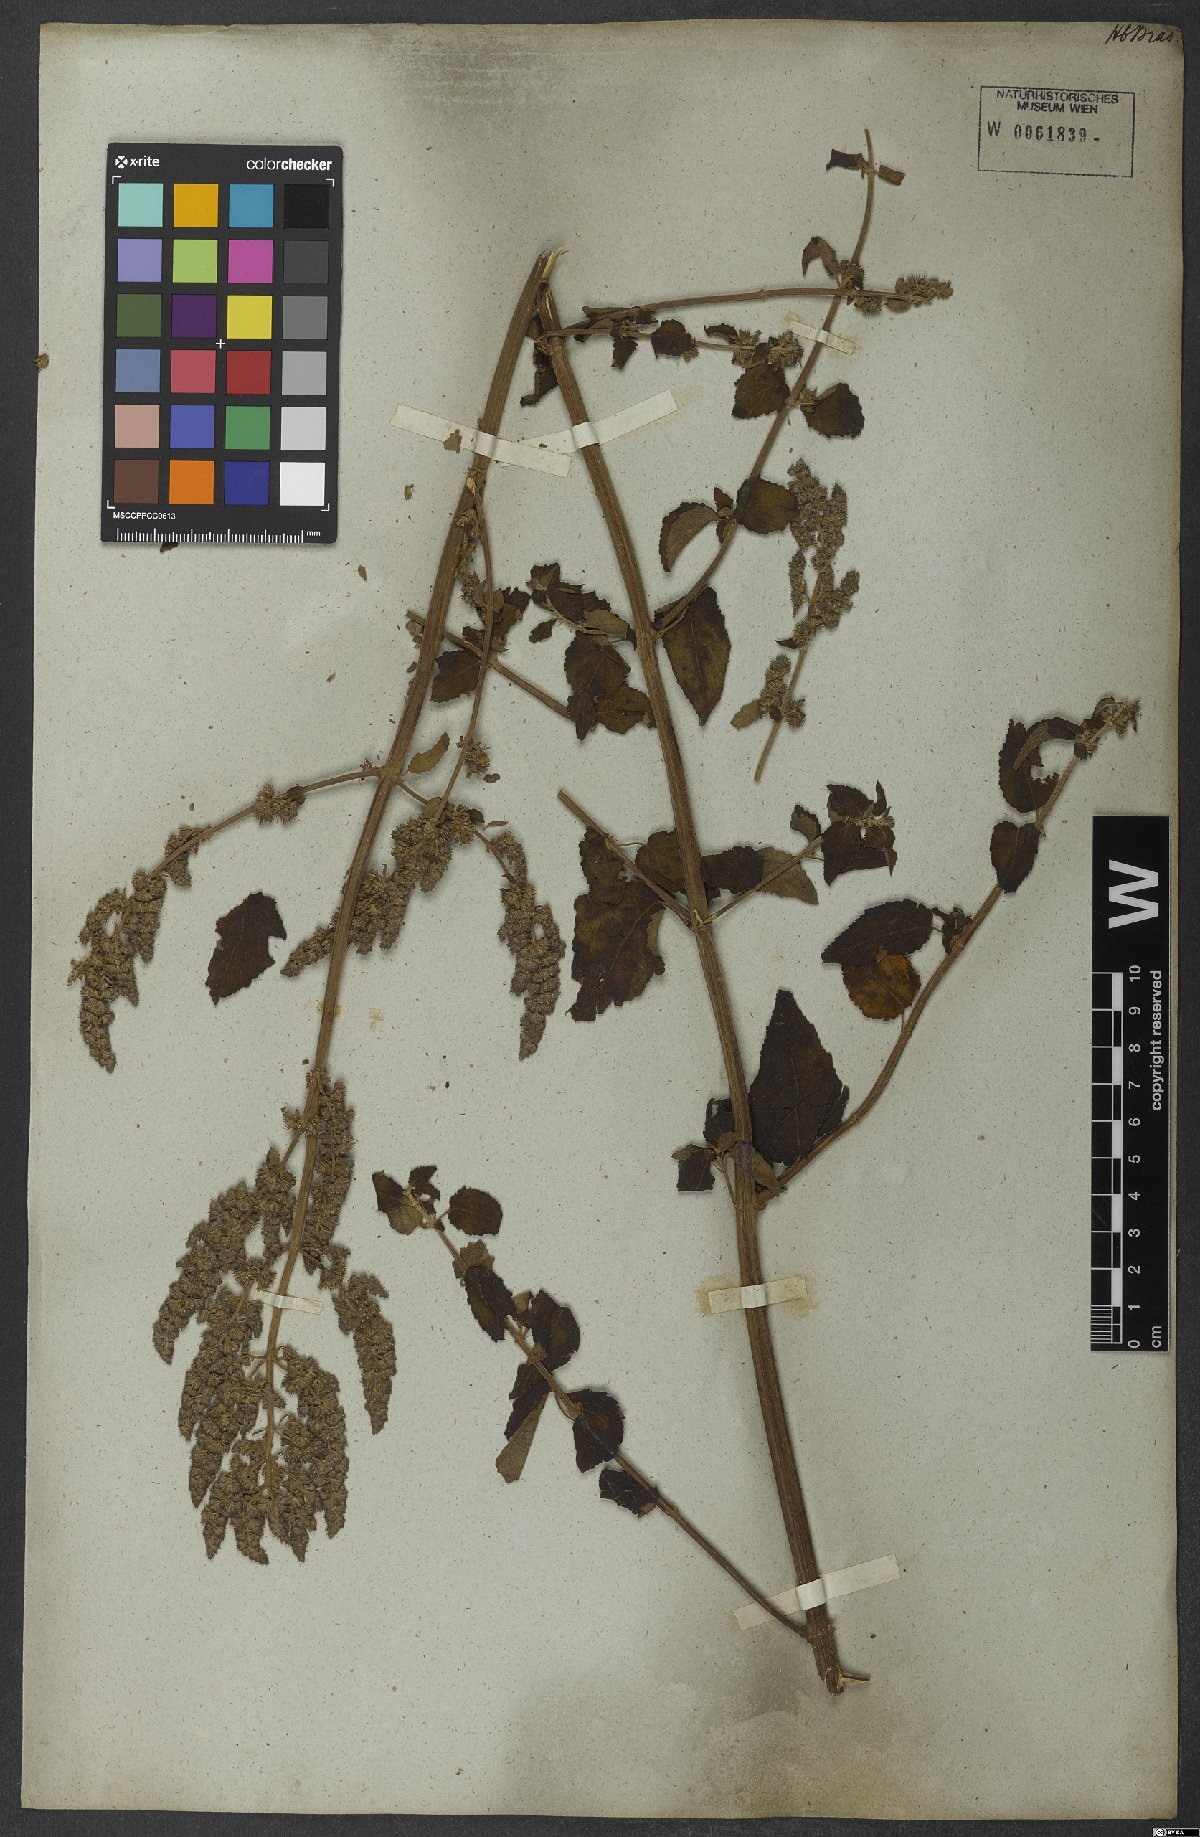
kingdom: Plantae
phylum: Tracheophyta
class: Magnoliopsida
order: Lamiales
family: Lamiaceae
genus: Mesosphaerum
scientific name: Mesosphaerum pectinatum
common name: Comb hyptis
